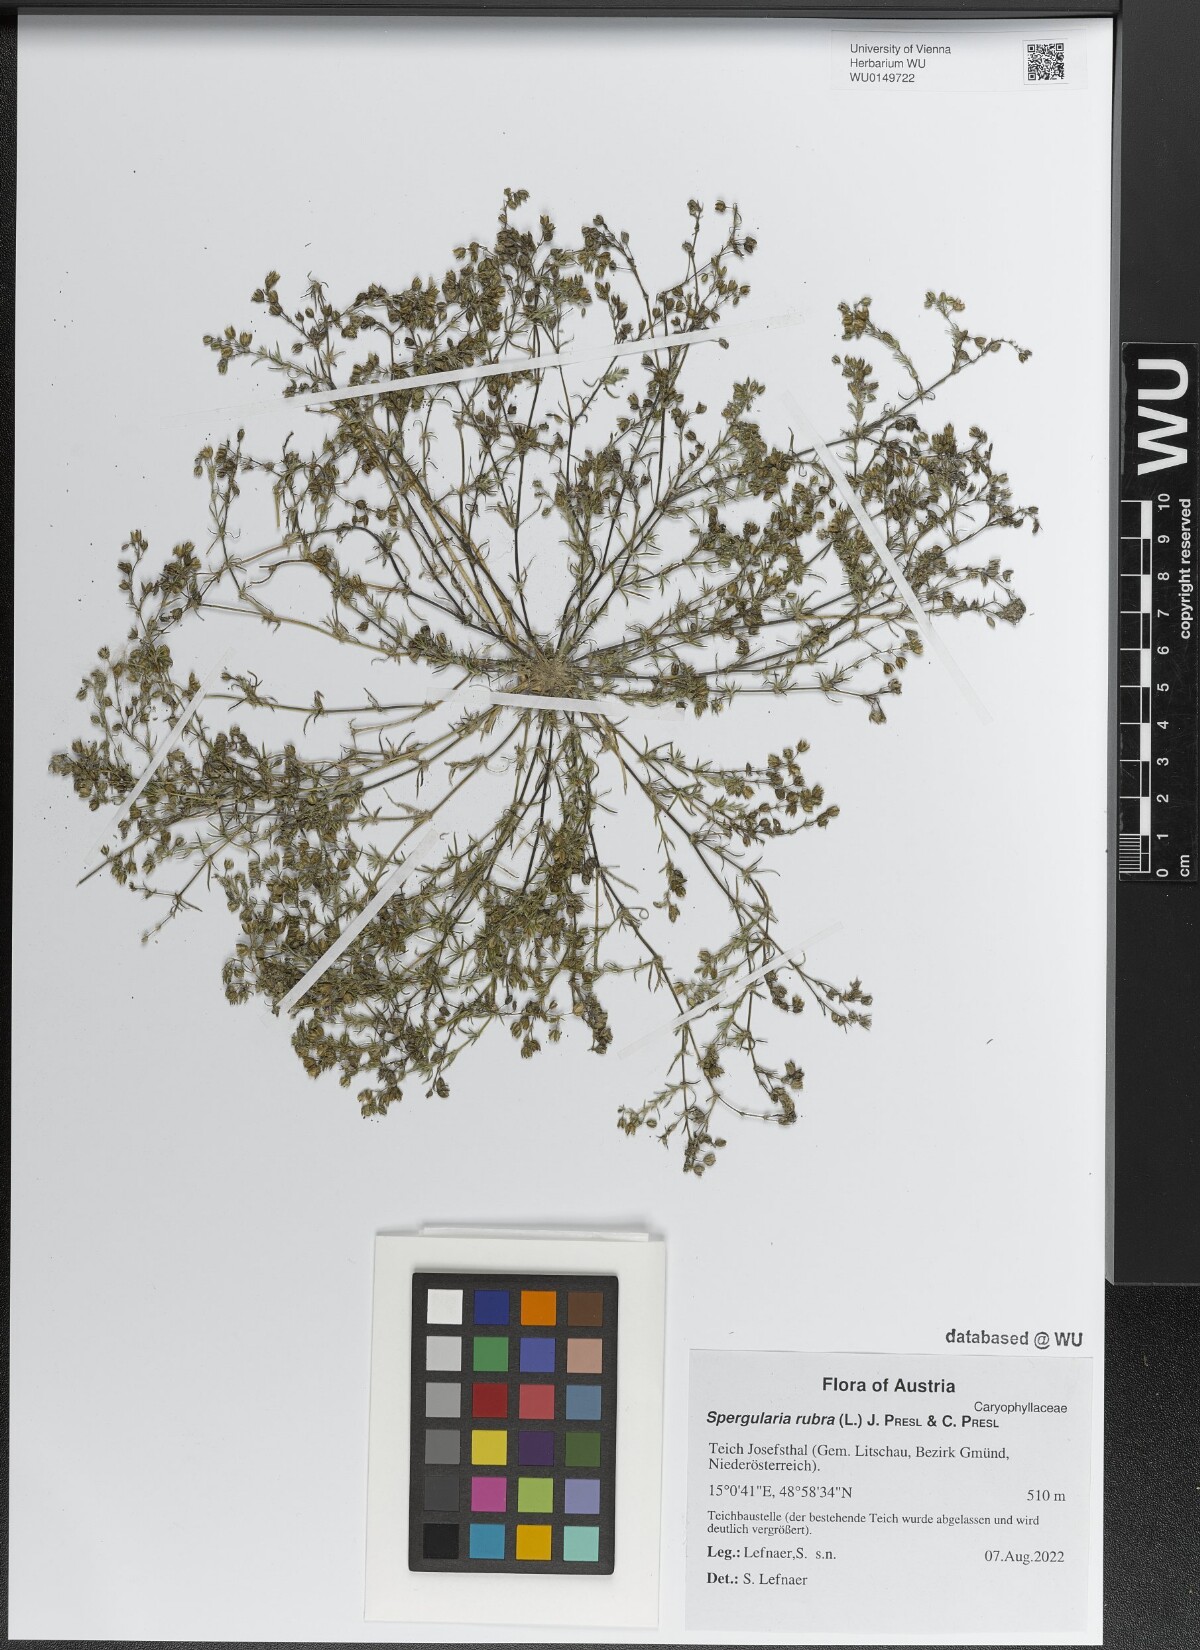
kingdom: Plantae
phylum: Tracheophyta
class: Magnoliopsida
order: Caryophyllales
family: Caryophyllaceae
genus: Spergularia
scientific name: Spergularia rubra
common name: Red sand-spurrey
